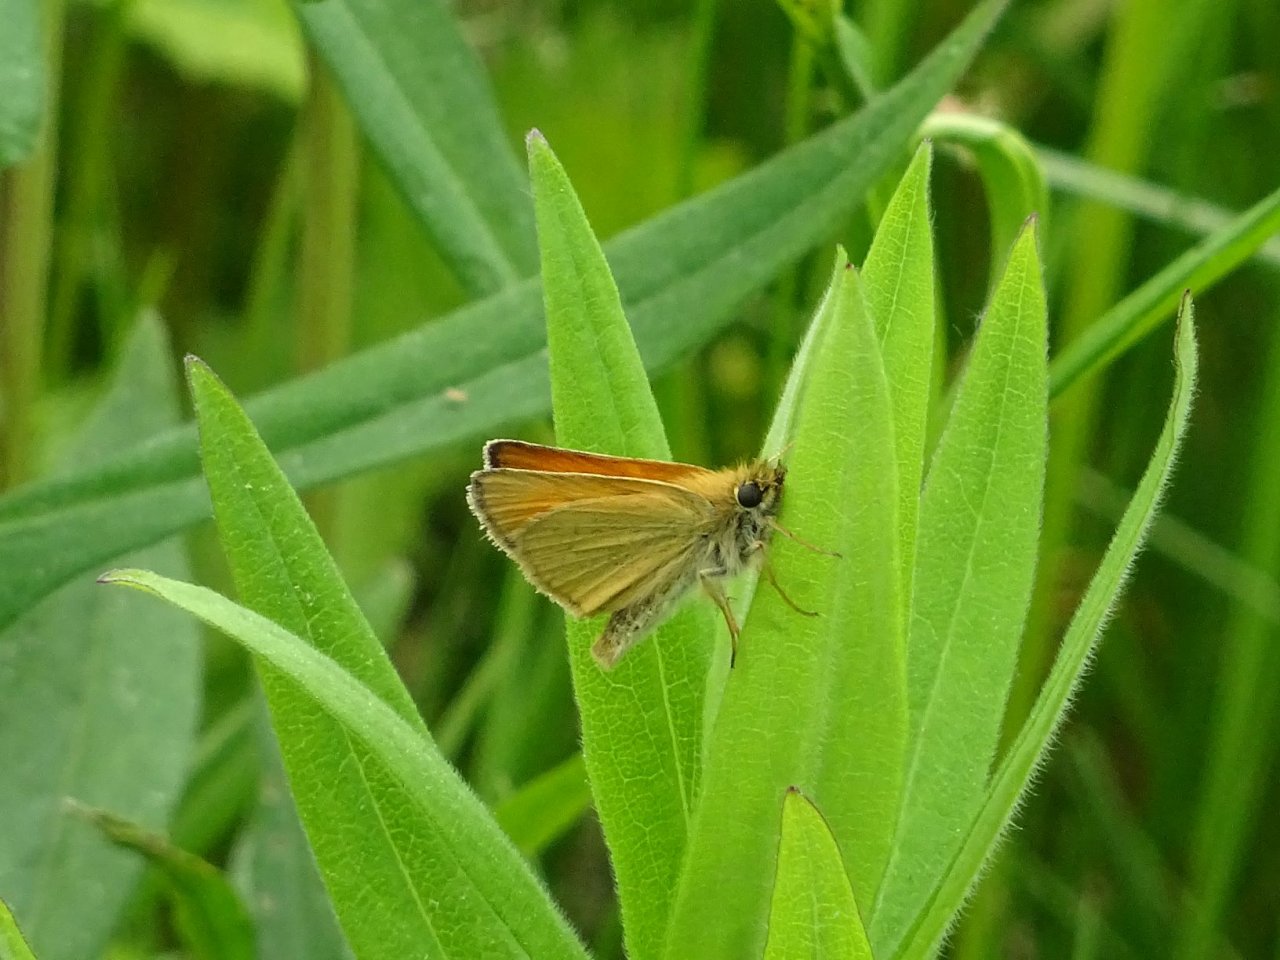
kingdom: Animalia
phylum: Arthropoda
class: Insecta
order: Lepidoptera
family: Hesperiidae
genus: Thymelicus
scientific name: Thymelicus lineola
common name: European Skipper
